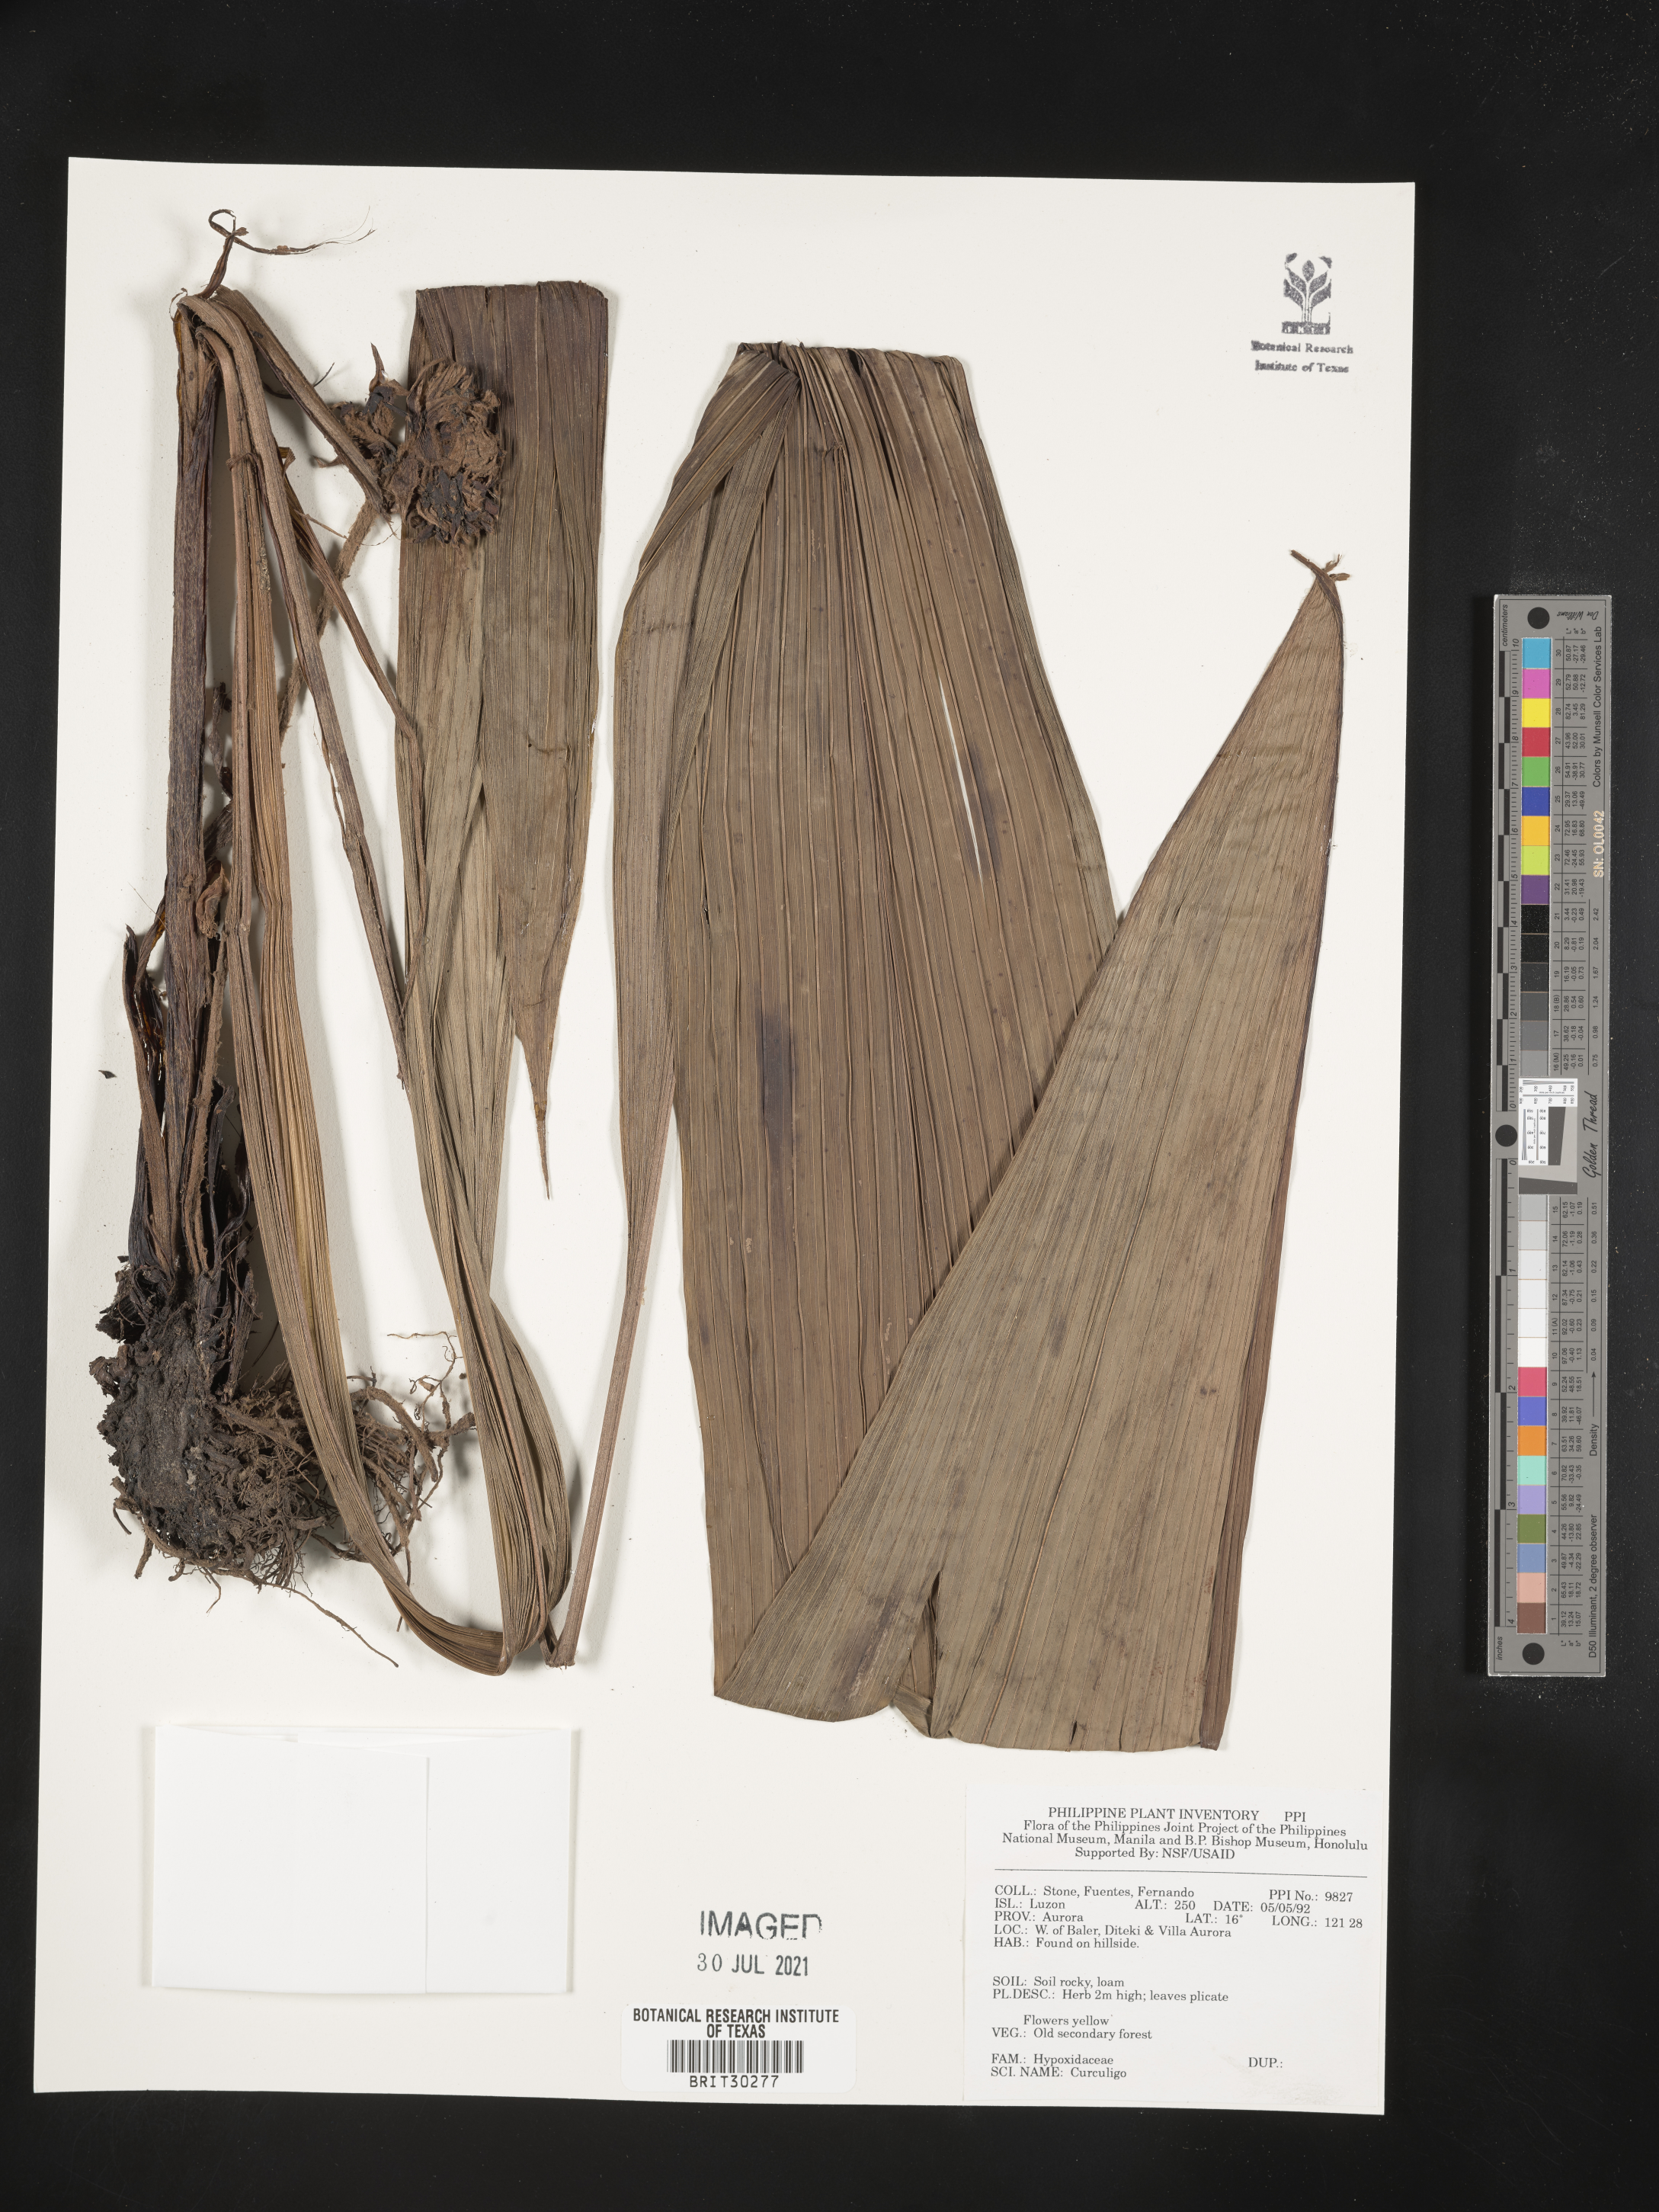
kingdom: Plantae
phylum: Tracheophyta
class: Liliopsida
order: Asparagales
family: Hypoxidaceae
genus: Curculigo
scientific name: Curculigo
